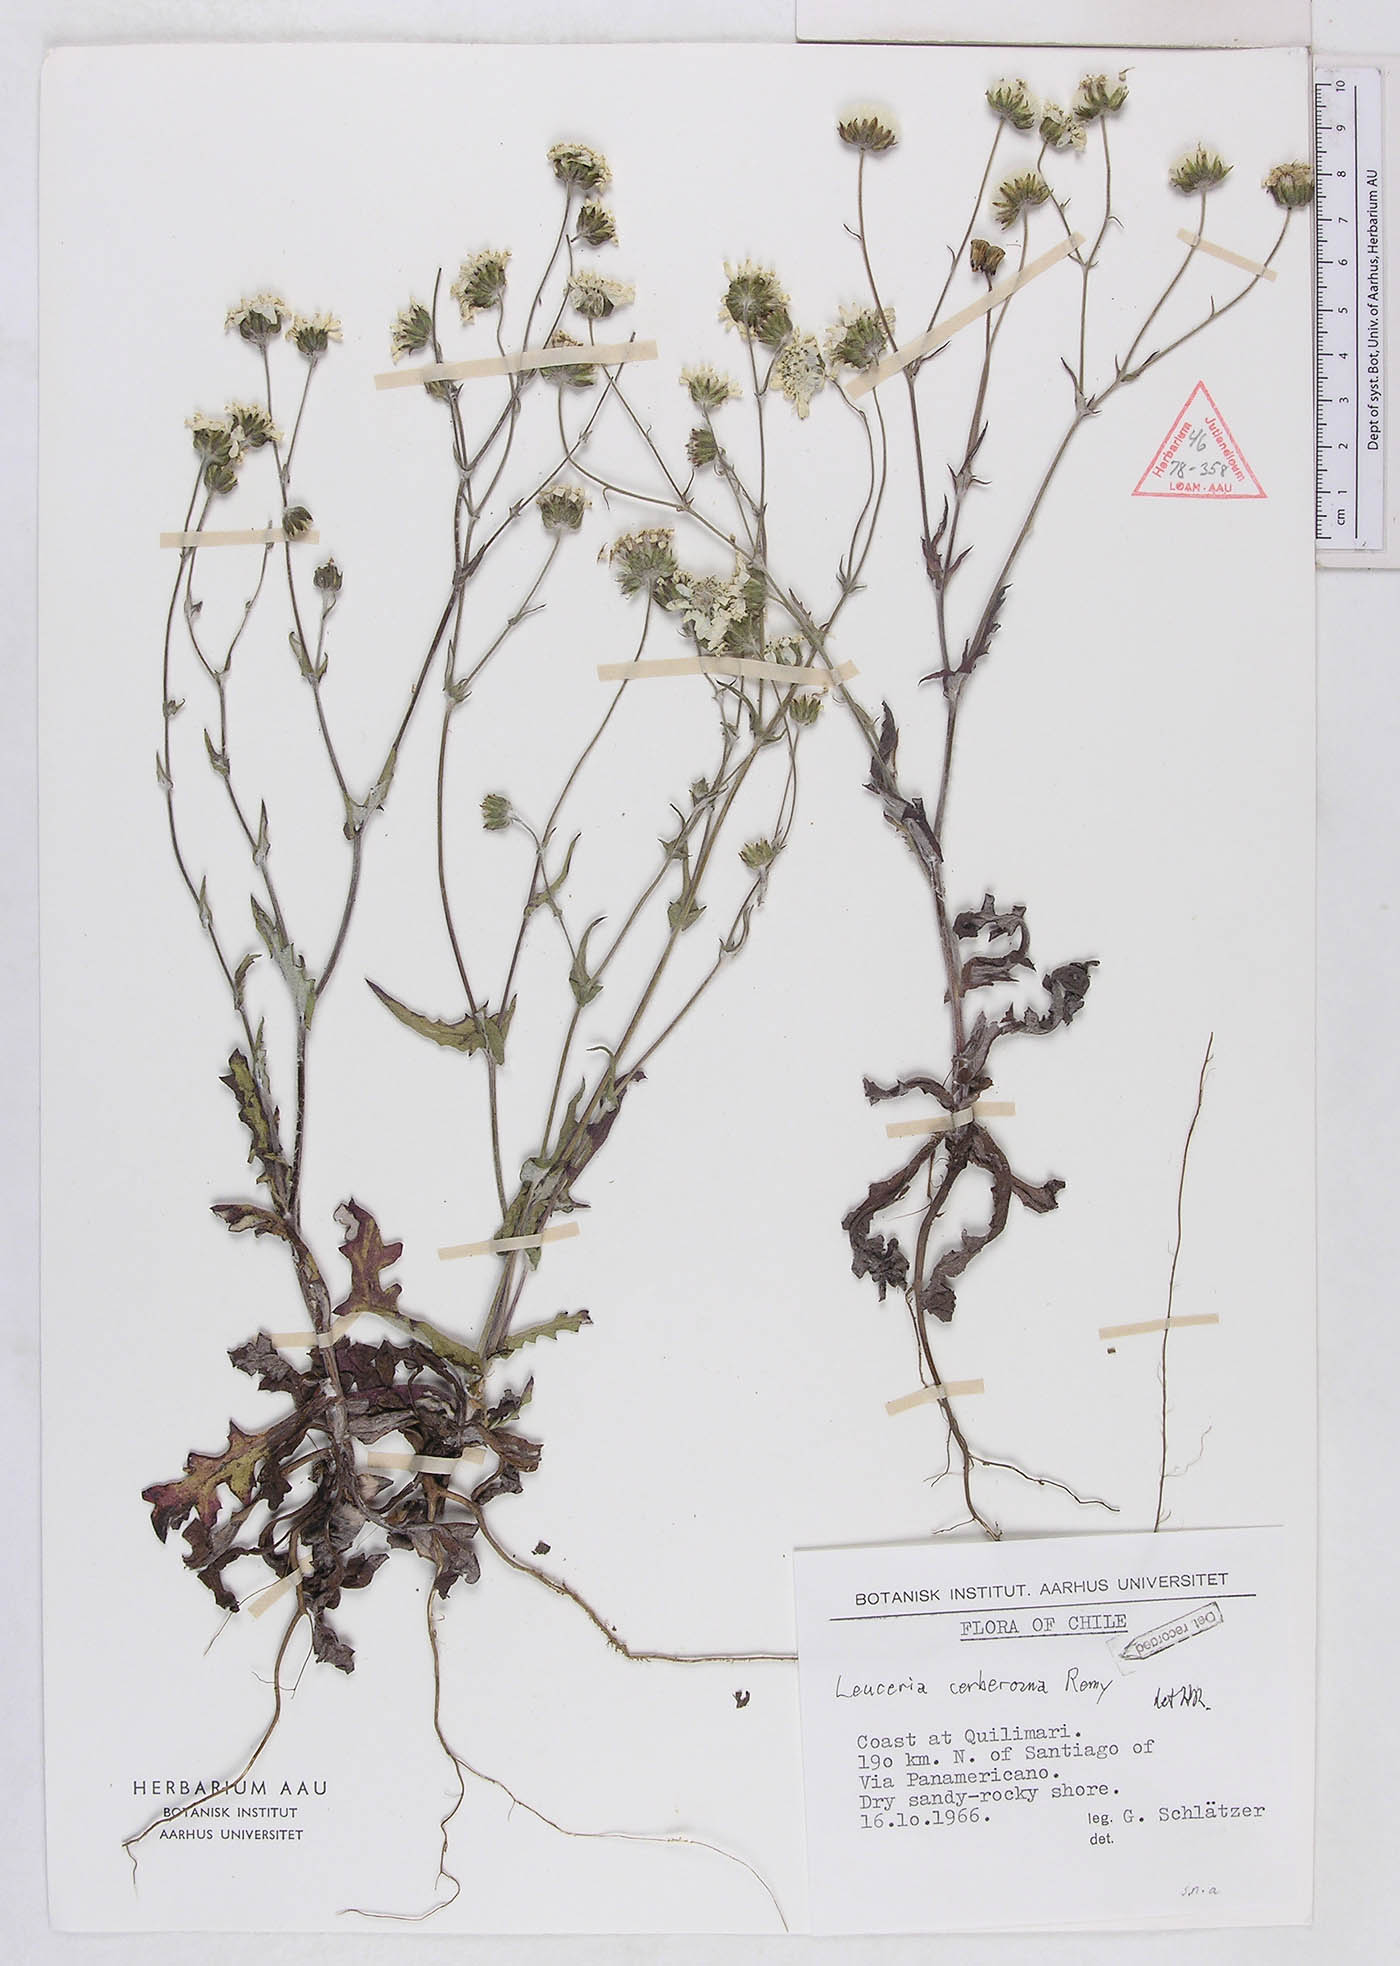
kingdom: Plantae
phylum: Tracheophyta
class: Magnoliopsida
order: Asterales
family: Asteraceae
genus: Leucheria
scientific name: Leucheria cerberoana
